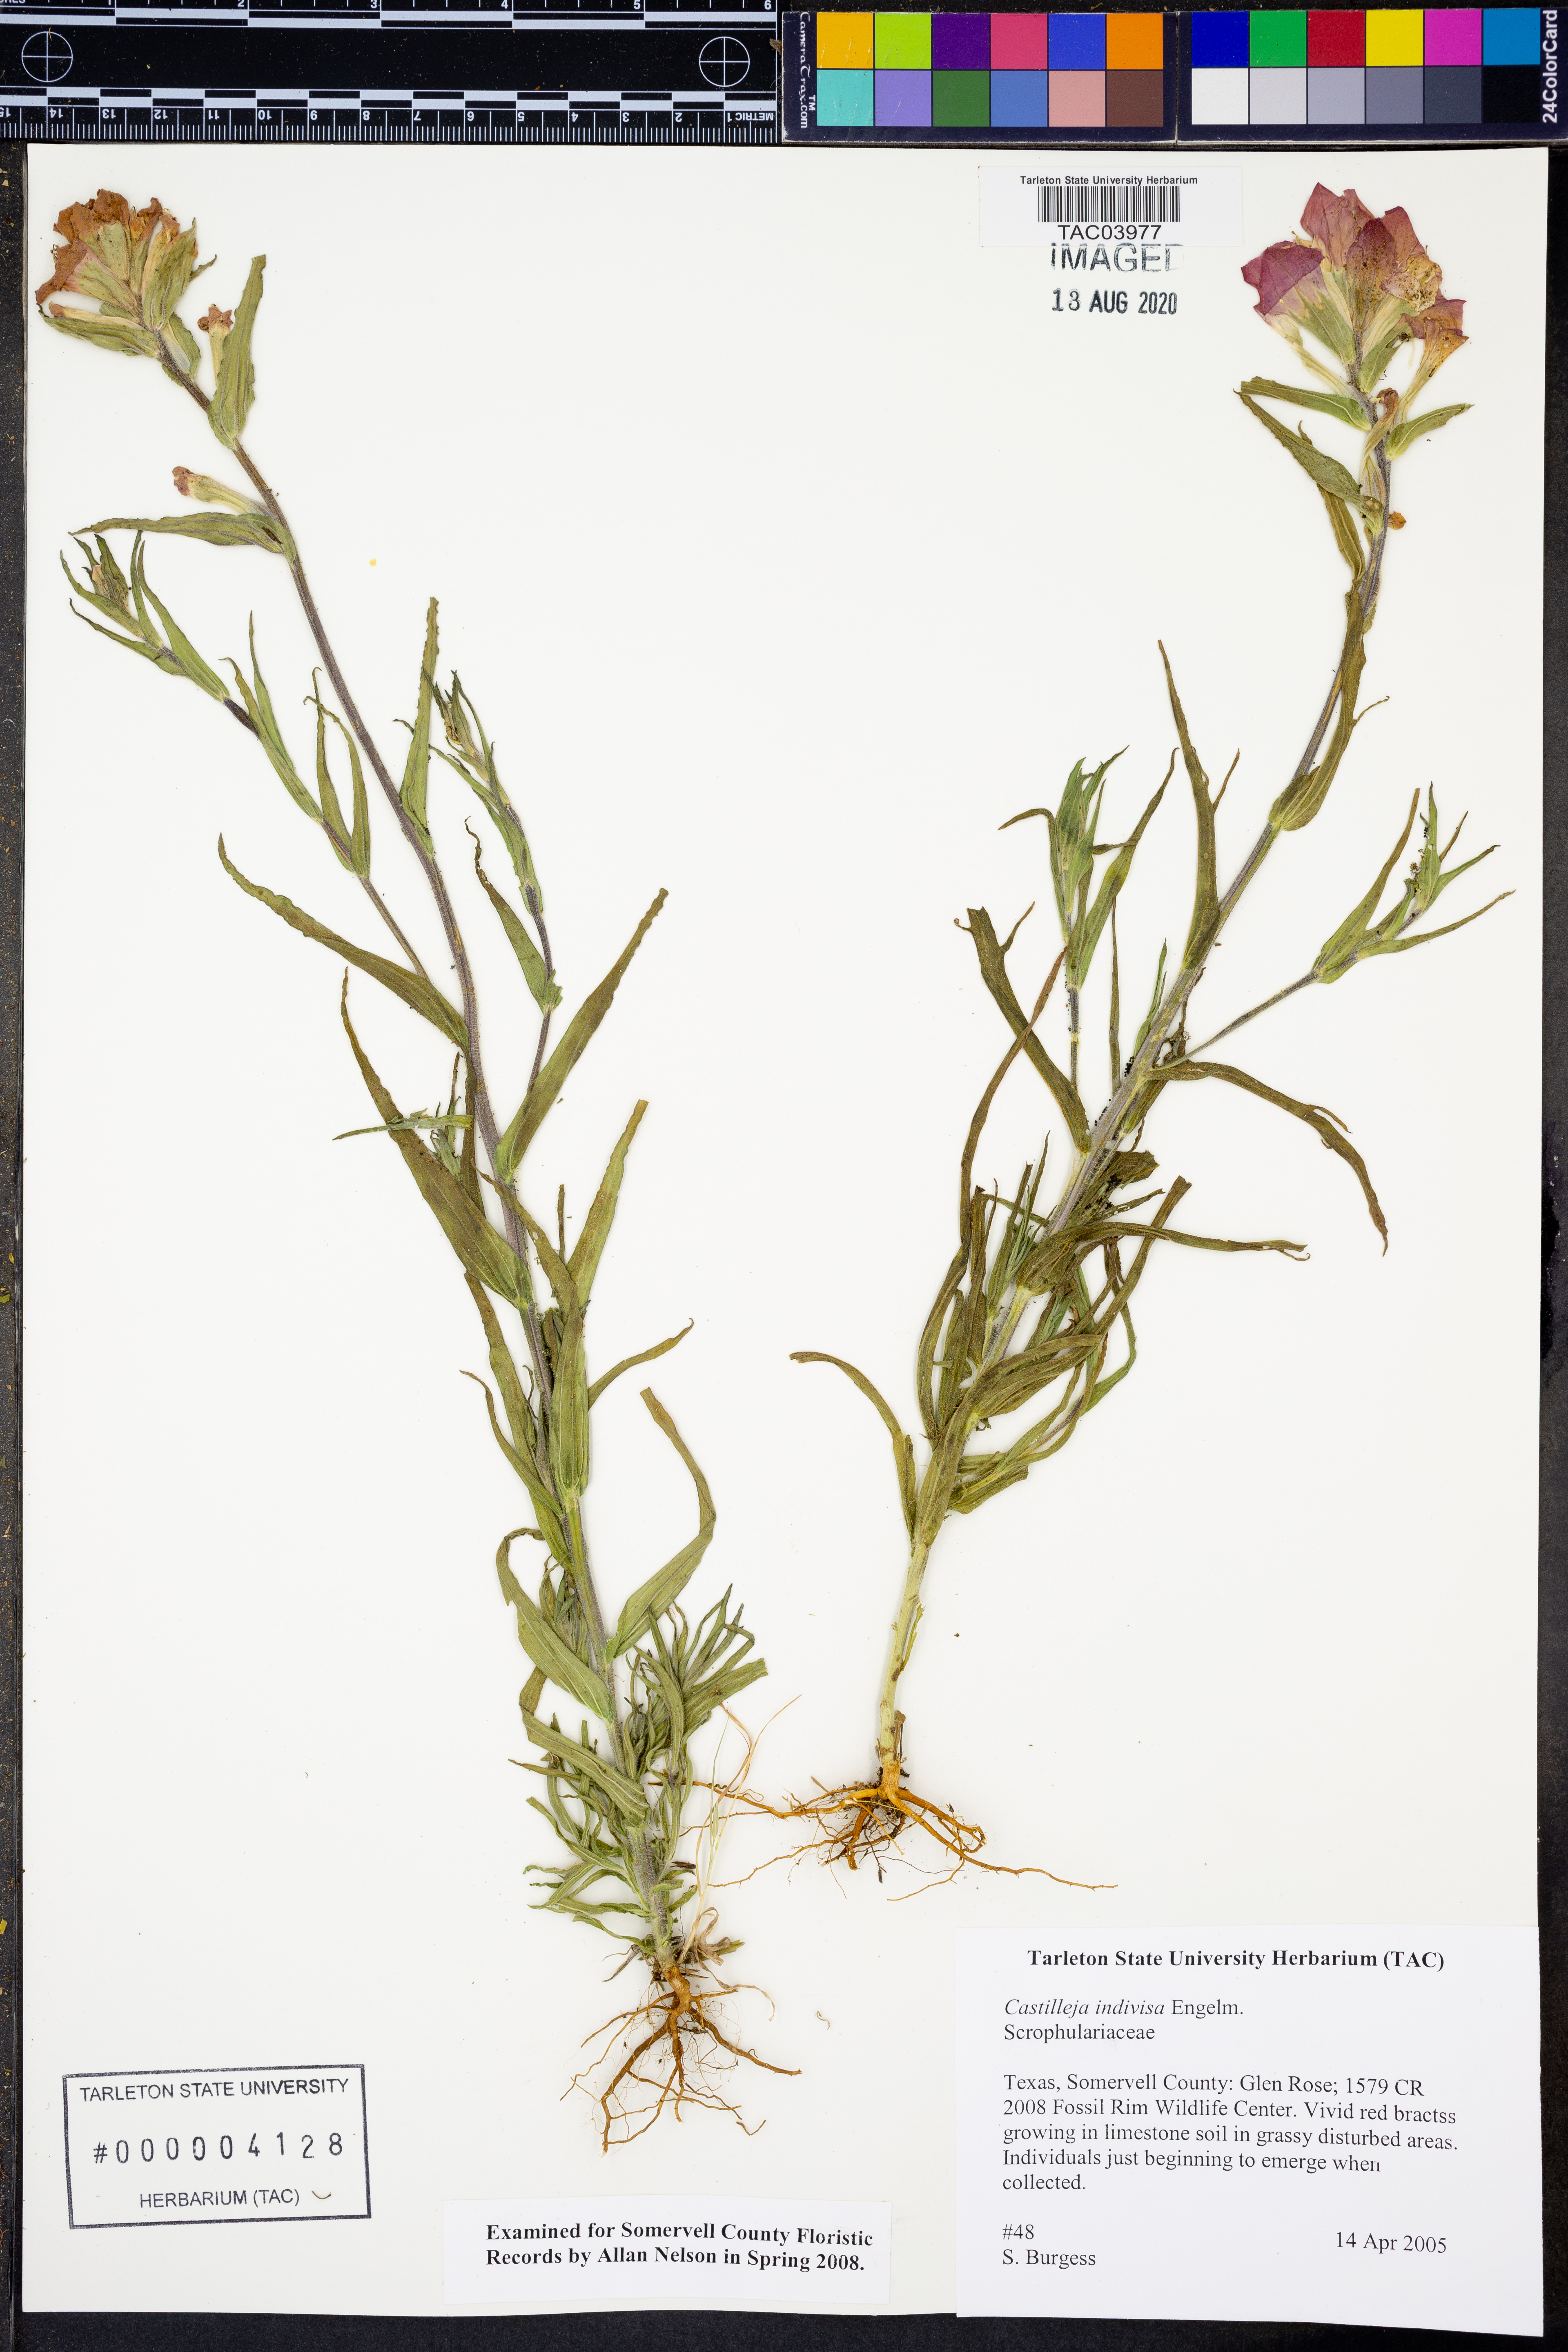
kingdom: Plantae
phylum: Tracheophyta
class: Magnoliopsida
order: Lamiales
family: Orobanchaceae
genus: Castilleja
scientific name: Castilleja indivisa
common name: Texas paintbrush
